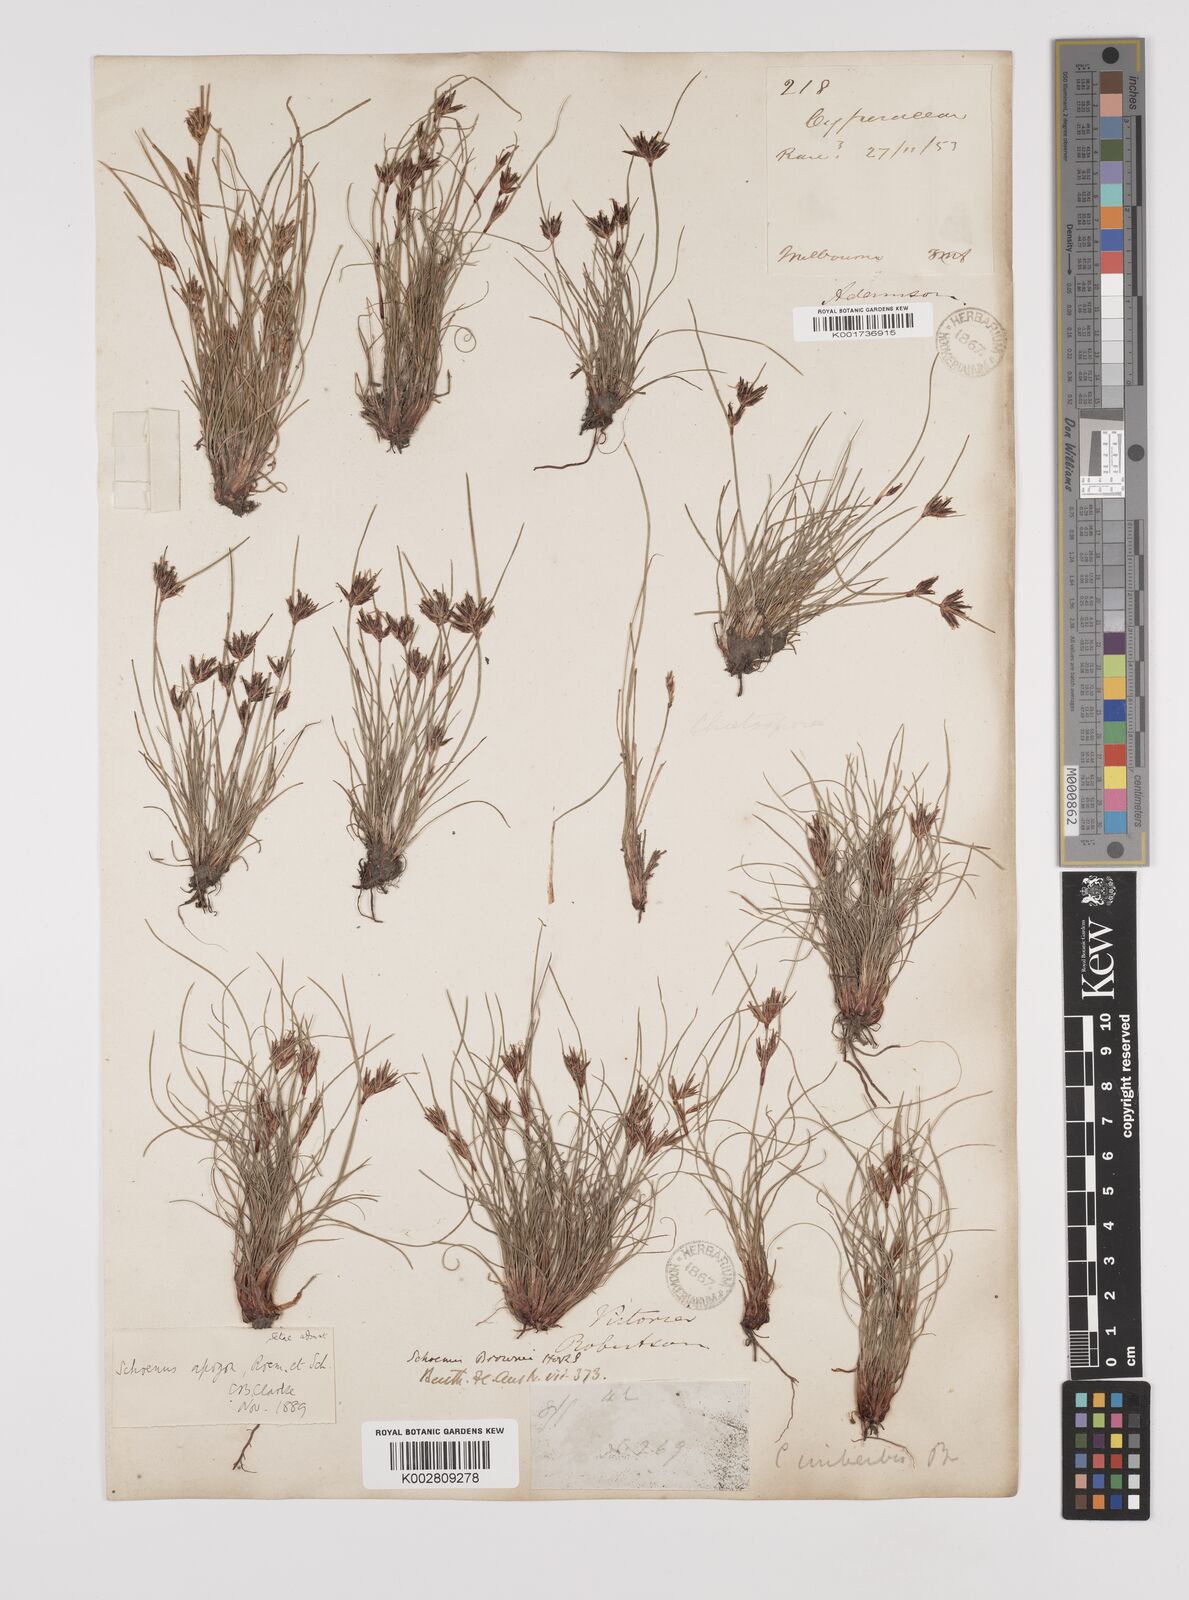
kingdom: Plantae
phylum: Tracheophyta
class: Liliopsida
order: Poales
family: Cyperaceae
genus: Schoenus
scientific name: Schoenus apogon
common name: Smooth bogrush
